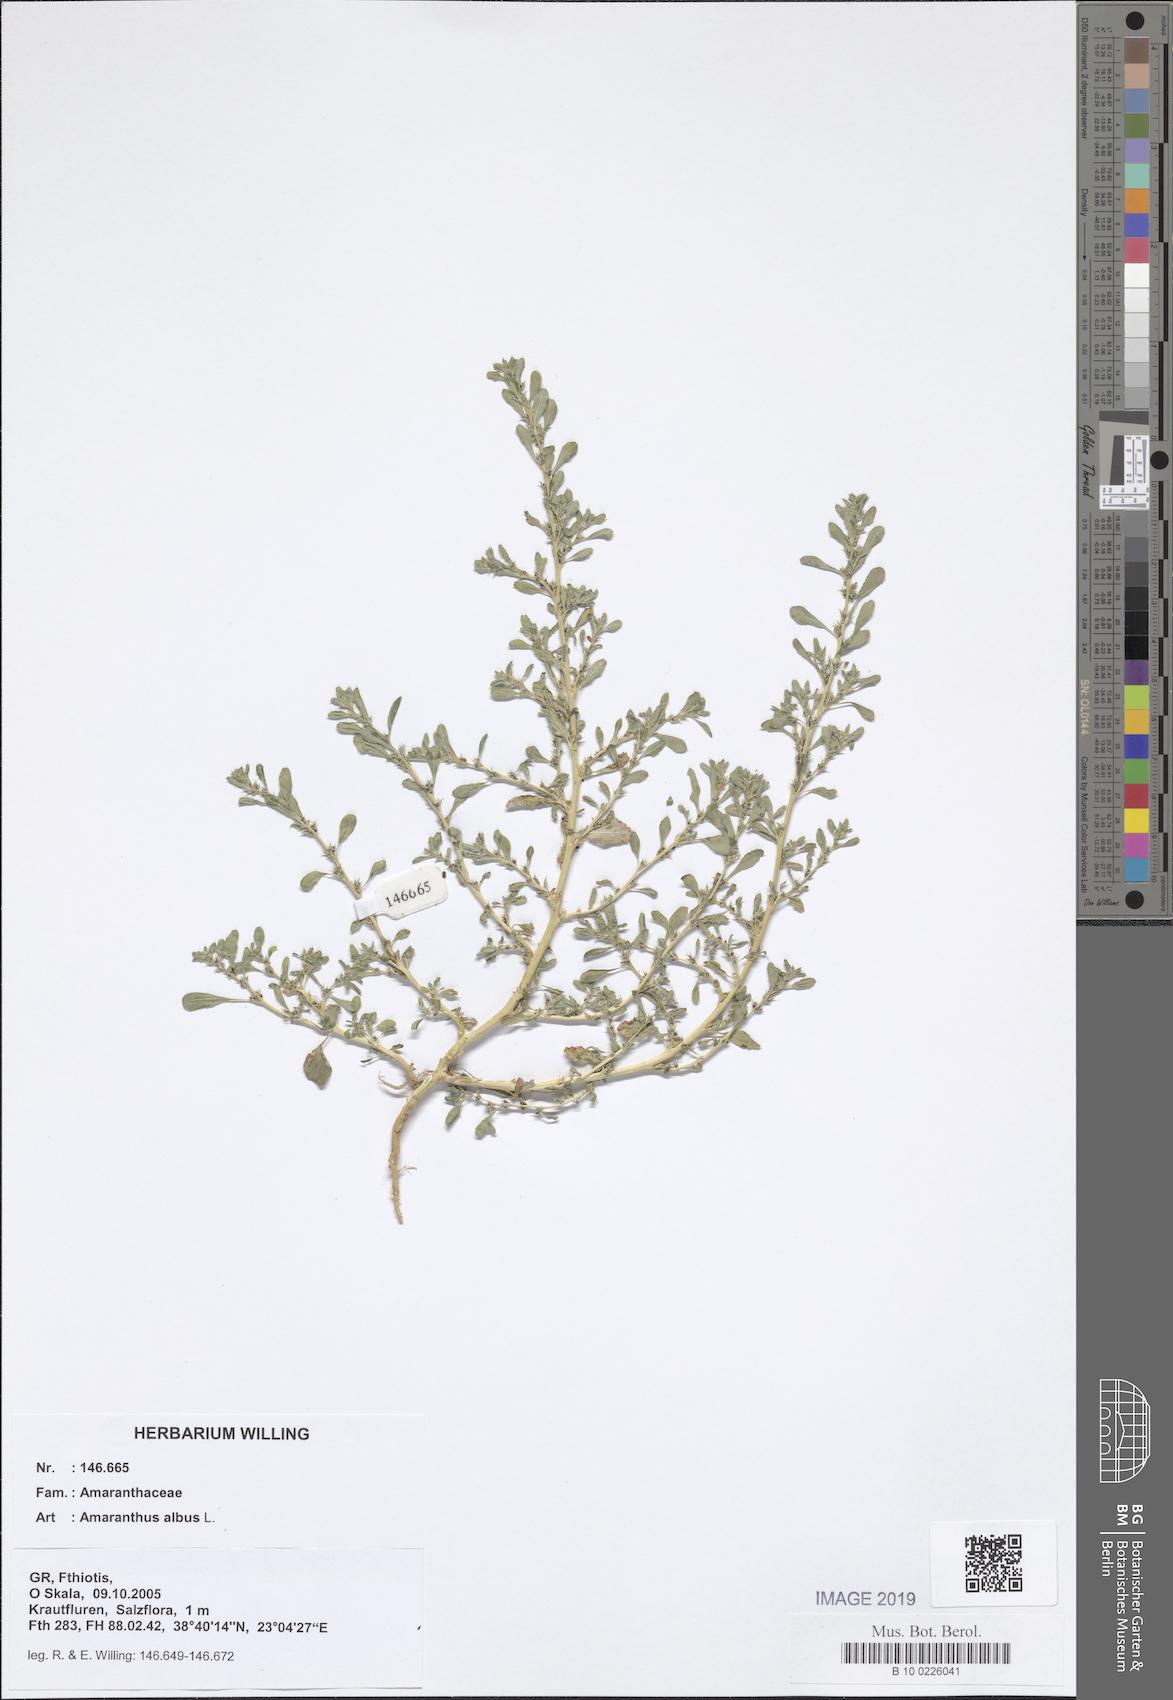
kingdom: Plantae
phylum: Tracheophyta
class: Magnoliopsida
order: Caryophyllales
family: Amaranthaceae
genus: Amaranthus
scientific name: Amaranthus albus
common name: White pigweed
